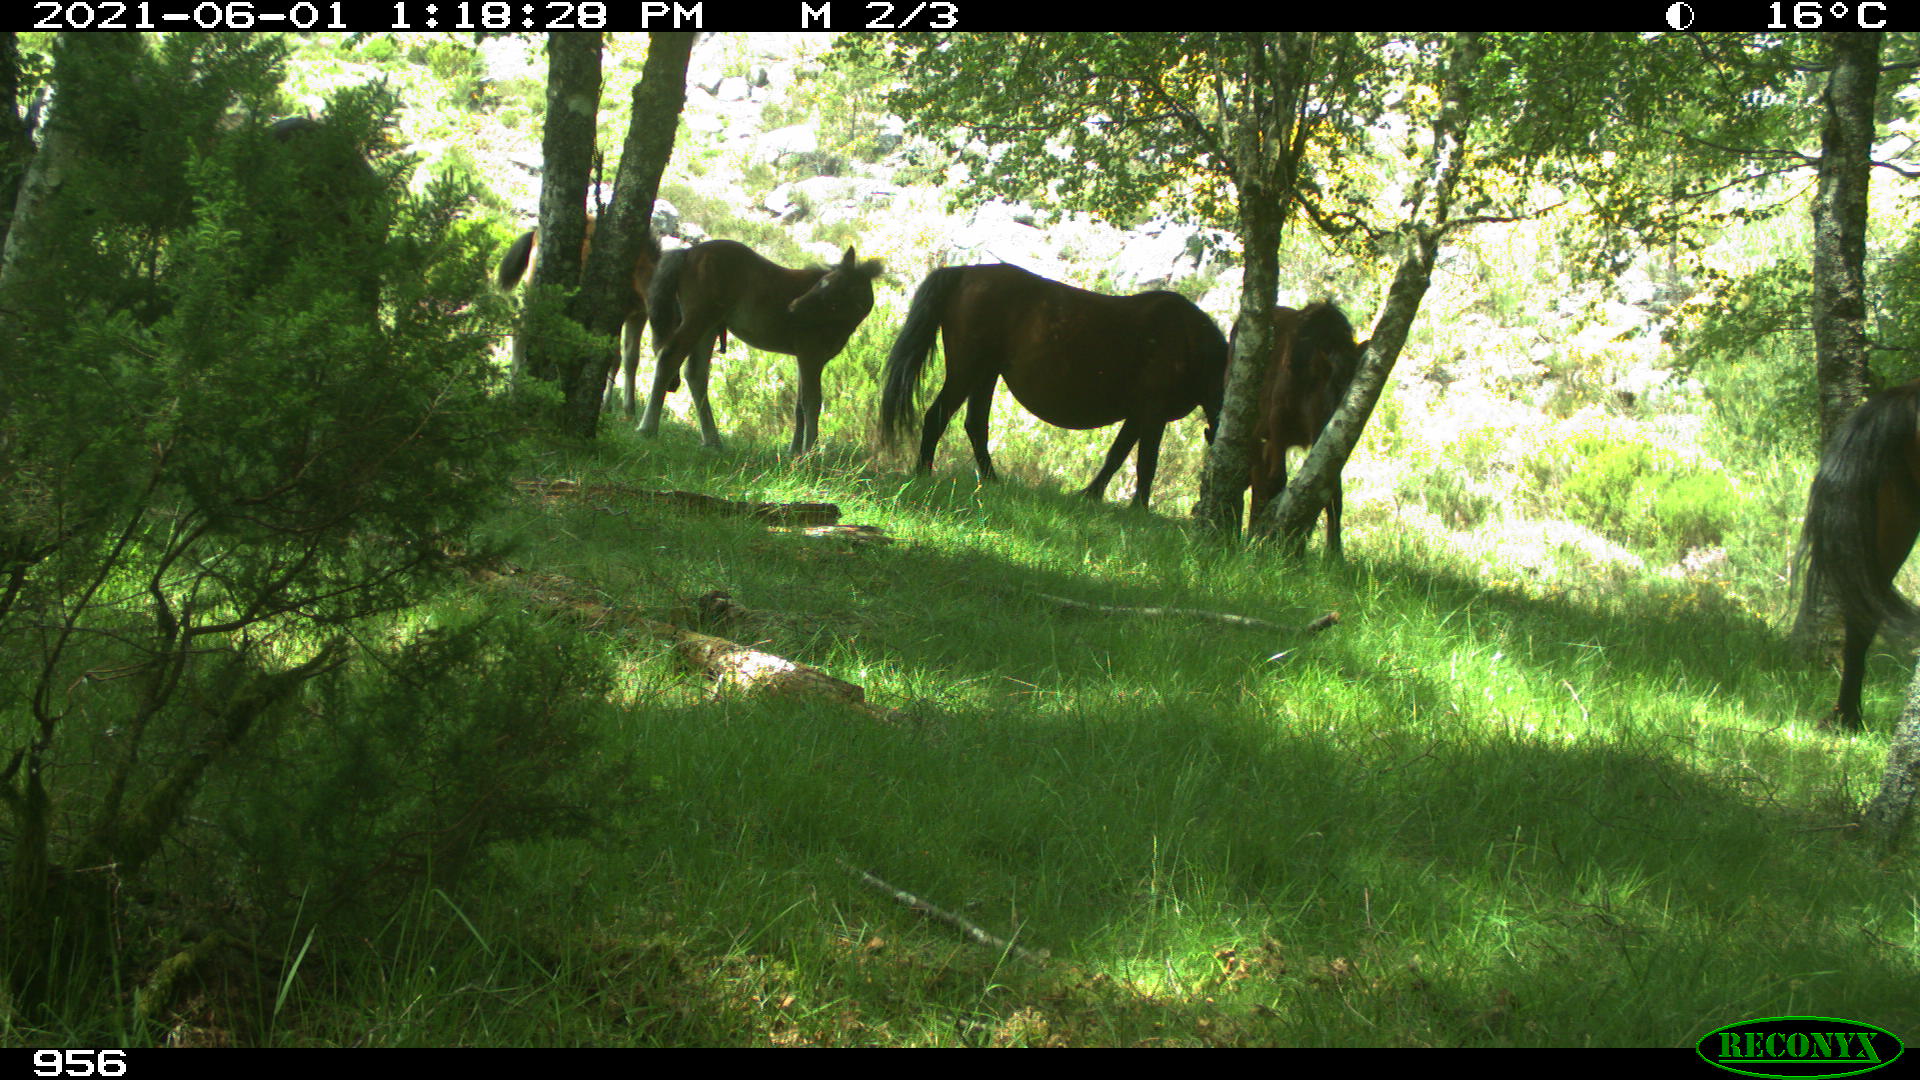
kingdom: Animalia
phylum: Chordata
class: Mammalia
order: Perissodactyla
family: Equidae
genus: Equus
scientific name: Equus caballus
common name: Horse
